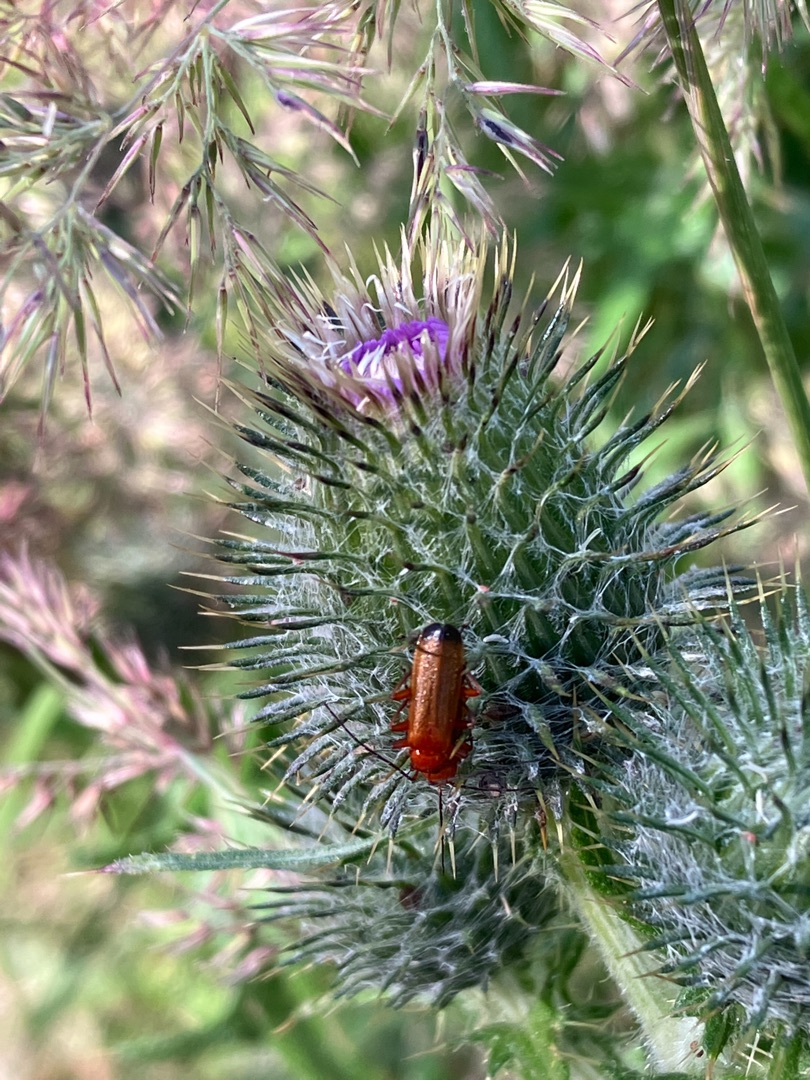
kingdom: Animalia
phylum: Arthropoda
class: Insecta
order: Coleoptera
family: Cantharidae
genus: Rhagonycha
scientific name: Rhagonycha fulva
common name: Præstebille
